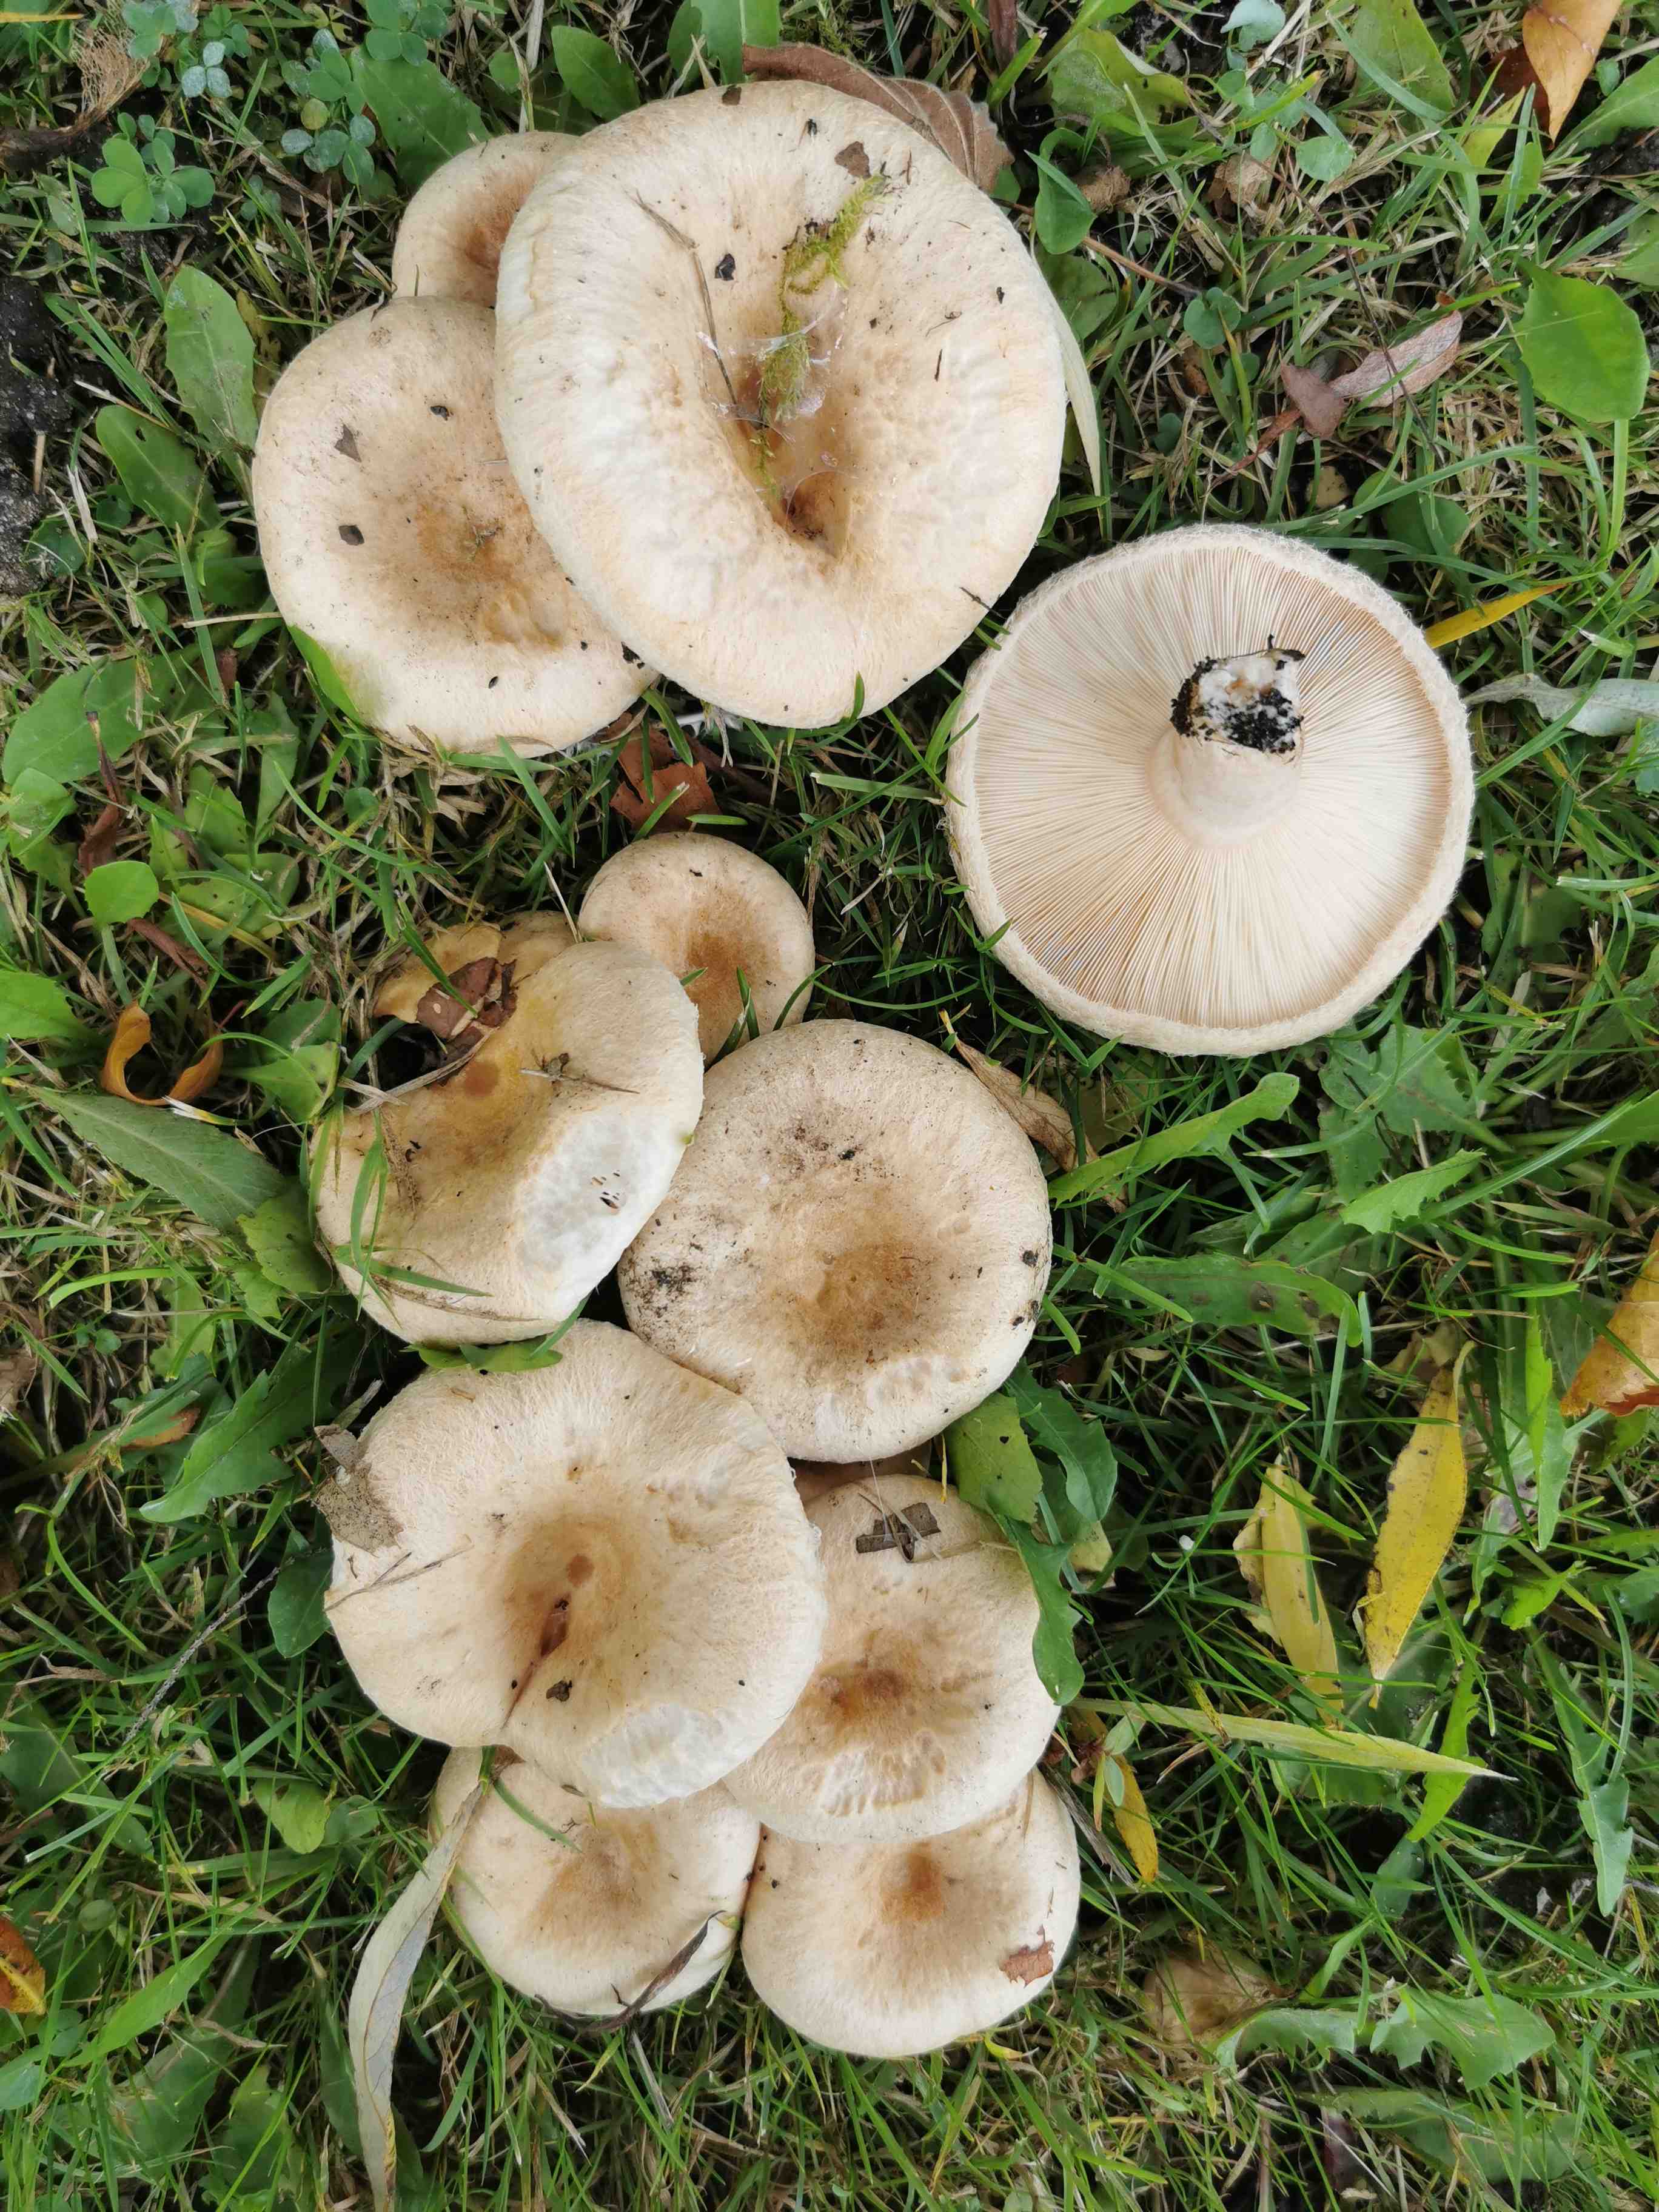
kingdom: Fungi
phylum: Basidiomycota
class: Agaricomycetes
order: Russulales
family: Russulaceae
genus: Lactarius
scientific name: Lactarius pubescens
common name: dunet mælkehat
